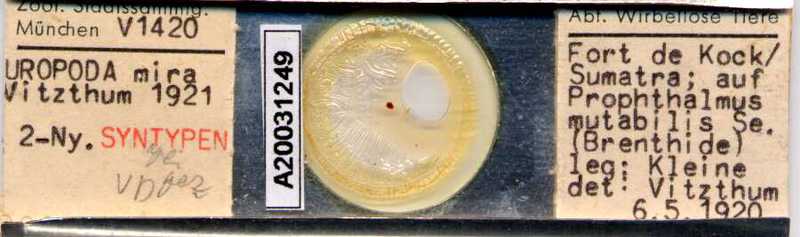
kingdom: Animalia
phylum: Arthropoda
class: Arachnida
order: Mesostigmata
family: Uropodidae
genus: Uropoda
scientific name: Uropoda
